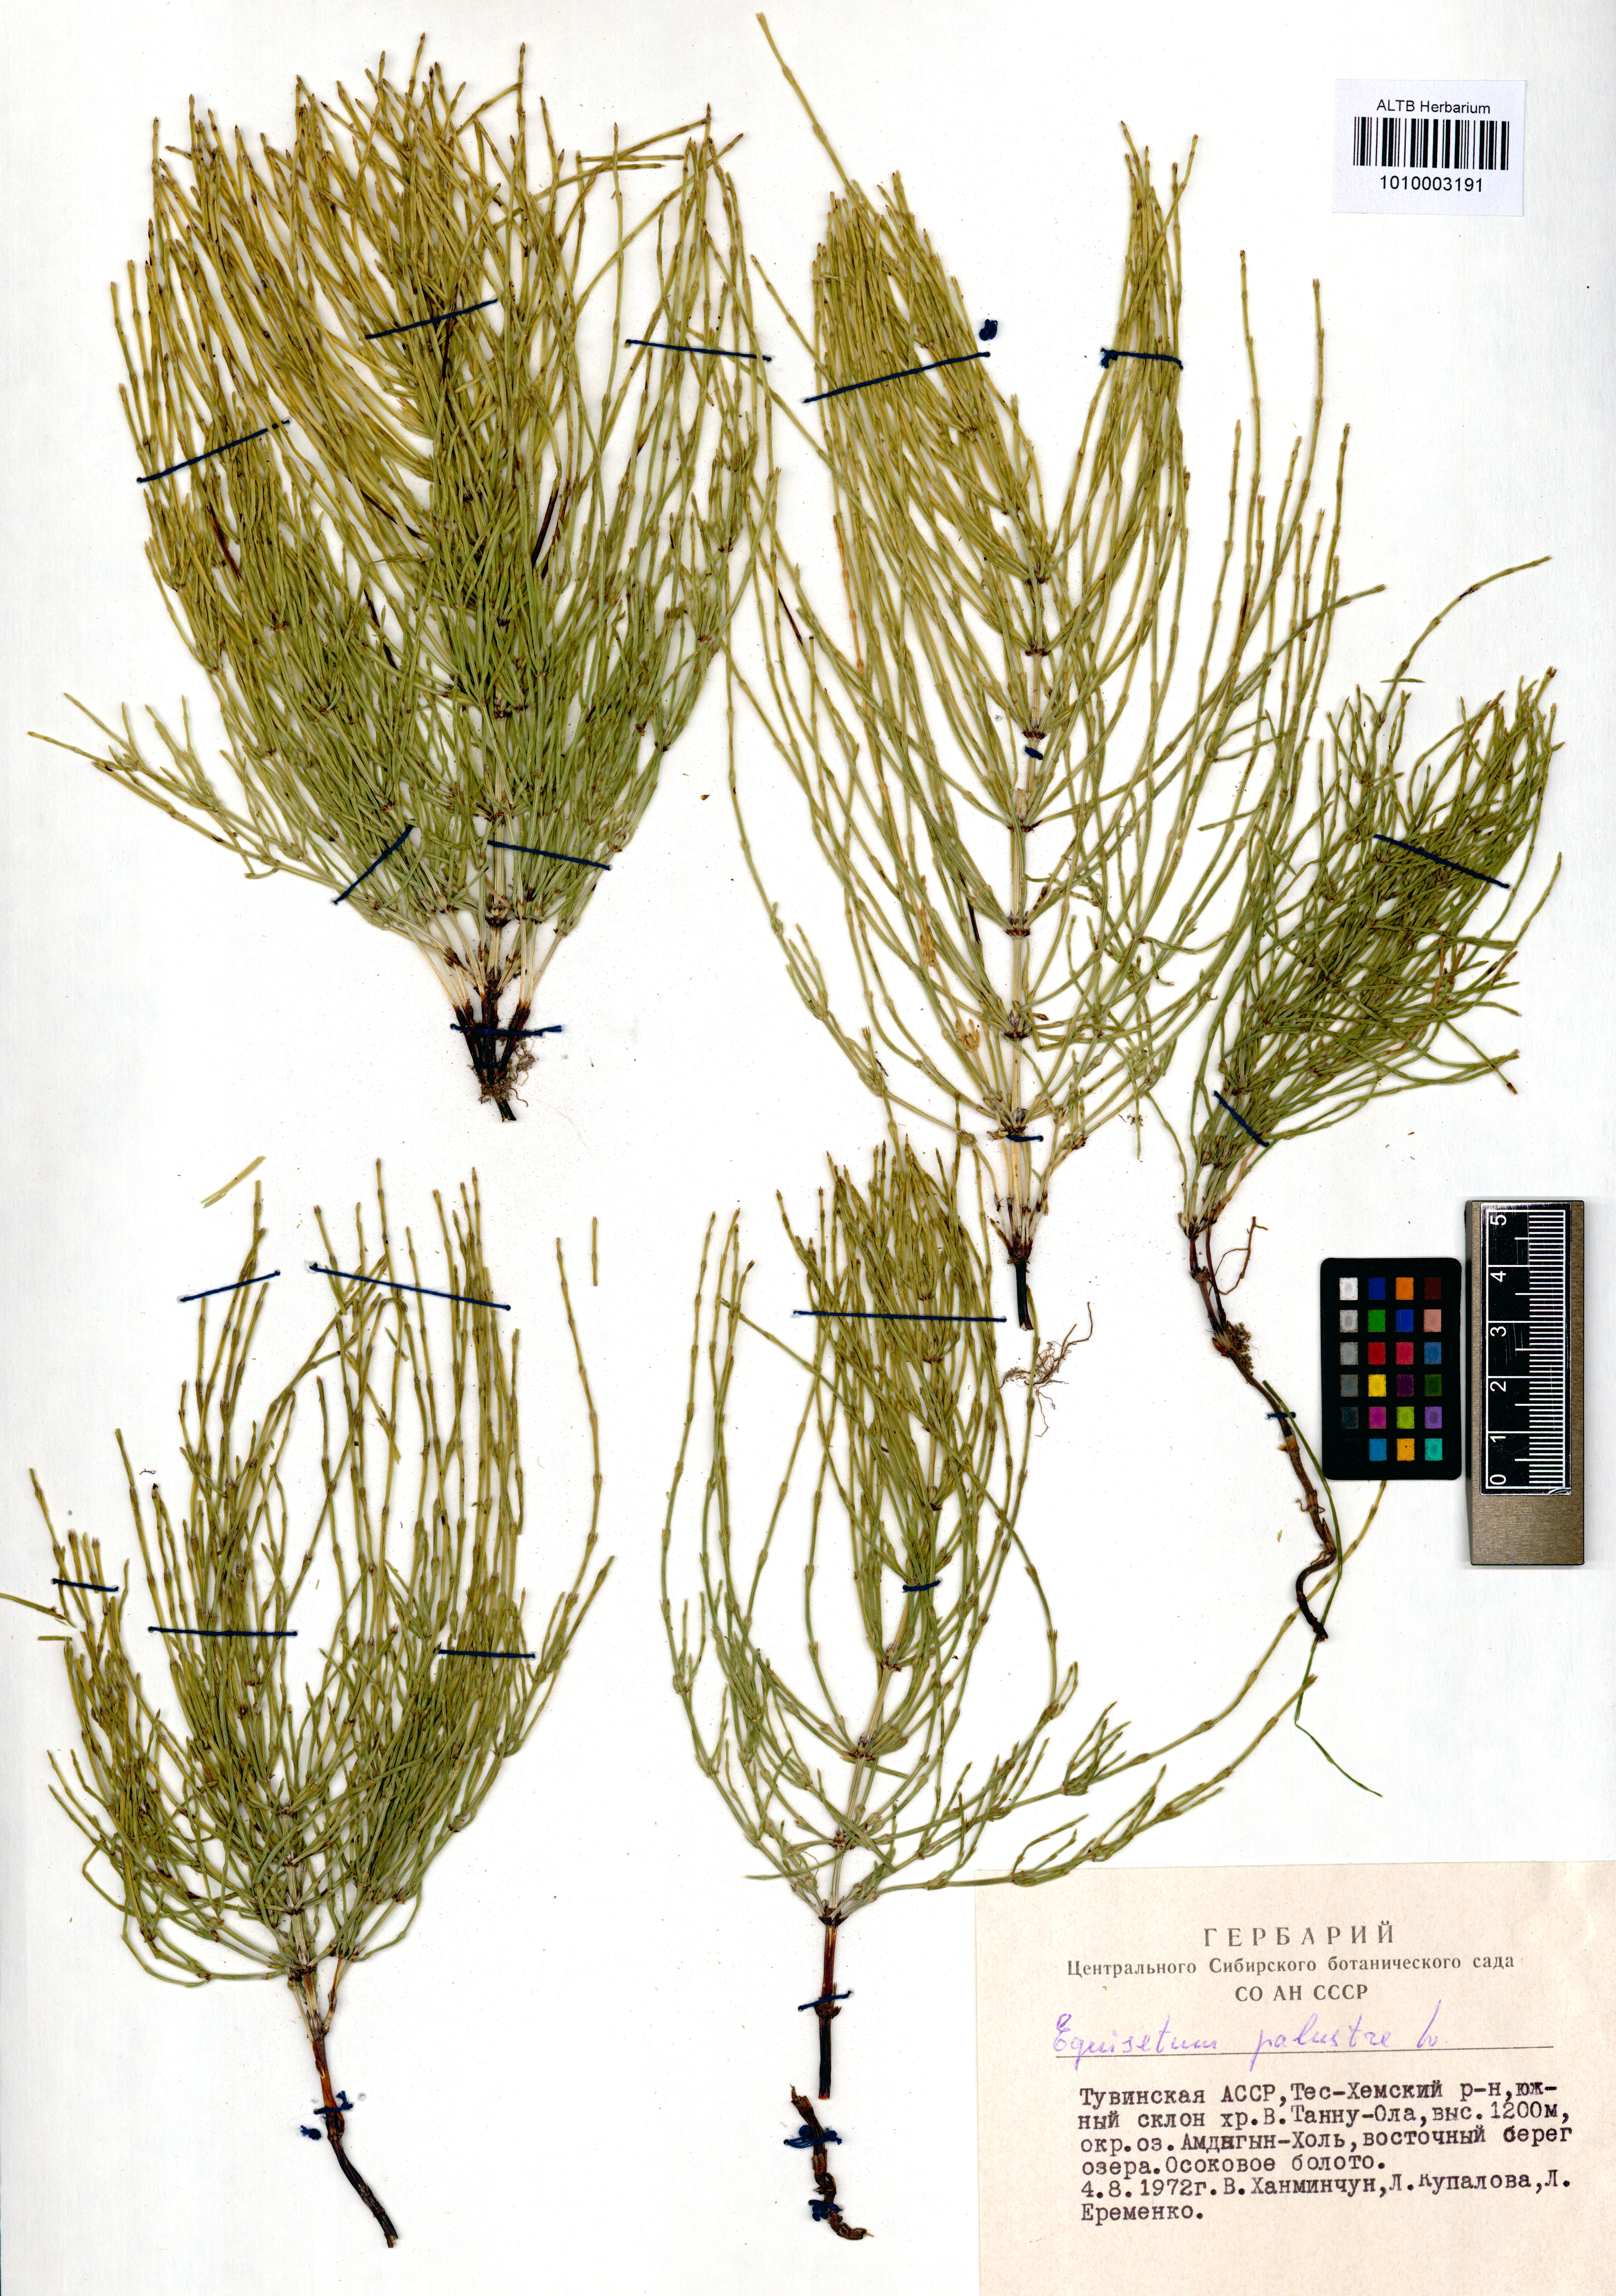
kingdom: Plantae
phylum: Tracheophyta
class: Polypodiopsida
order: Equisetales
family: Equisetaceae
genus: Equisetum
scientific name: Equisetum palustre
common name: Marsh horsetail
